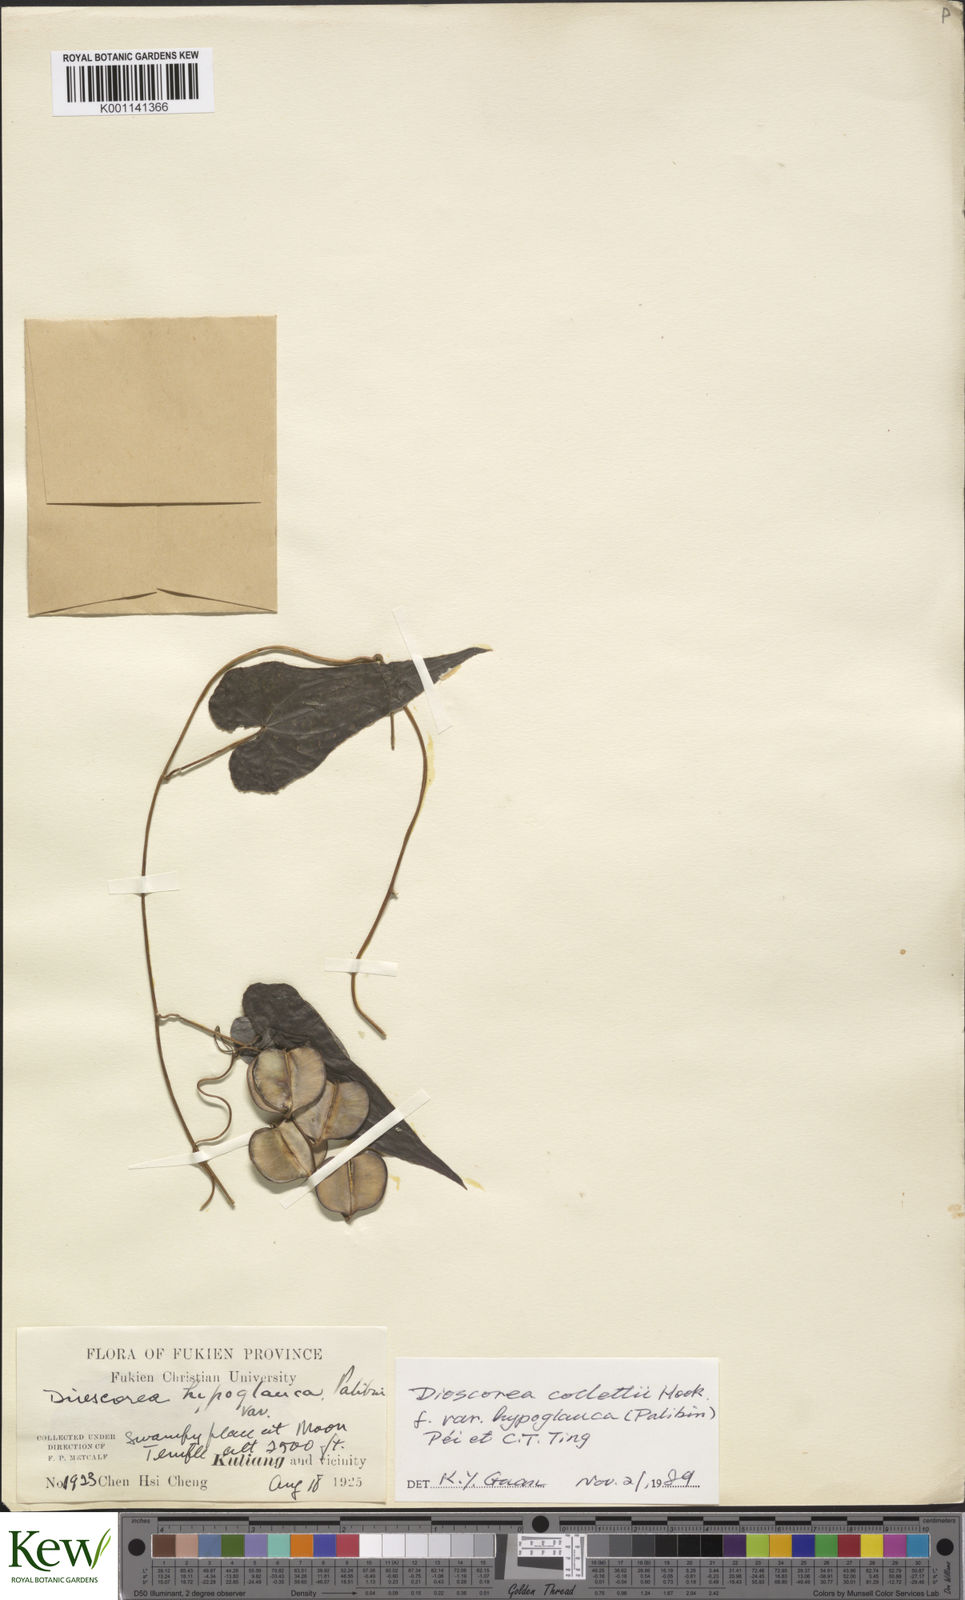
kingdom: Plantae
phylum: Tracheophyta
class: Liliopsida
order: Dioscoreales
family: Dioscoreaceae
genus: Dioscorea
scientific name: Dioscorea collettii
